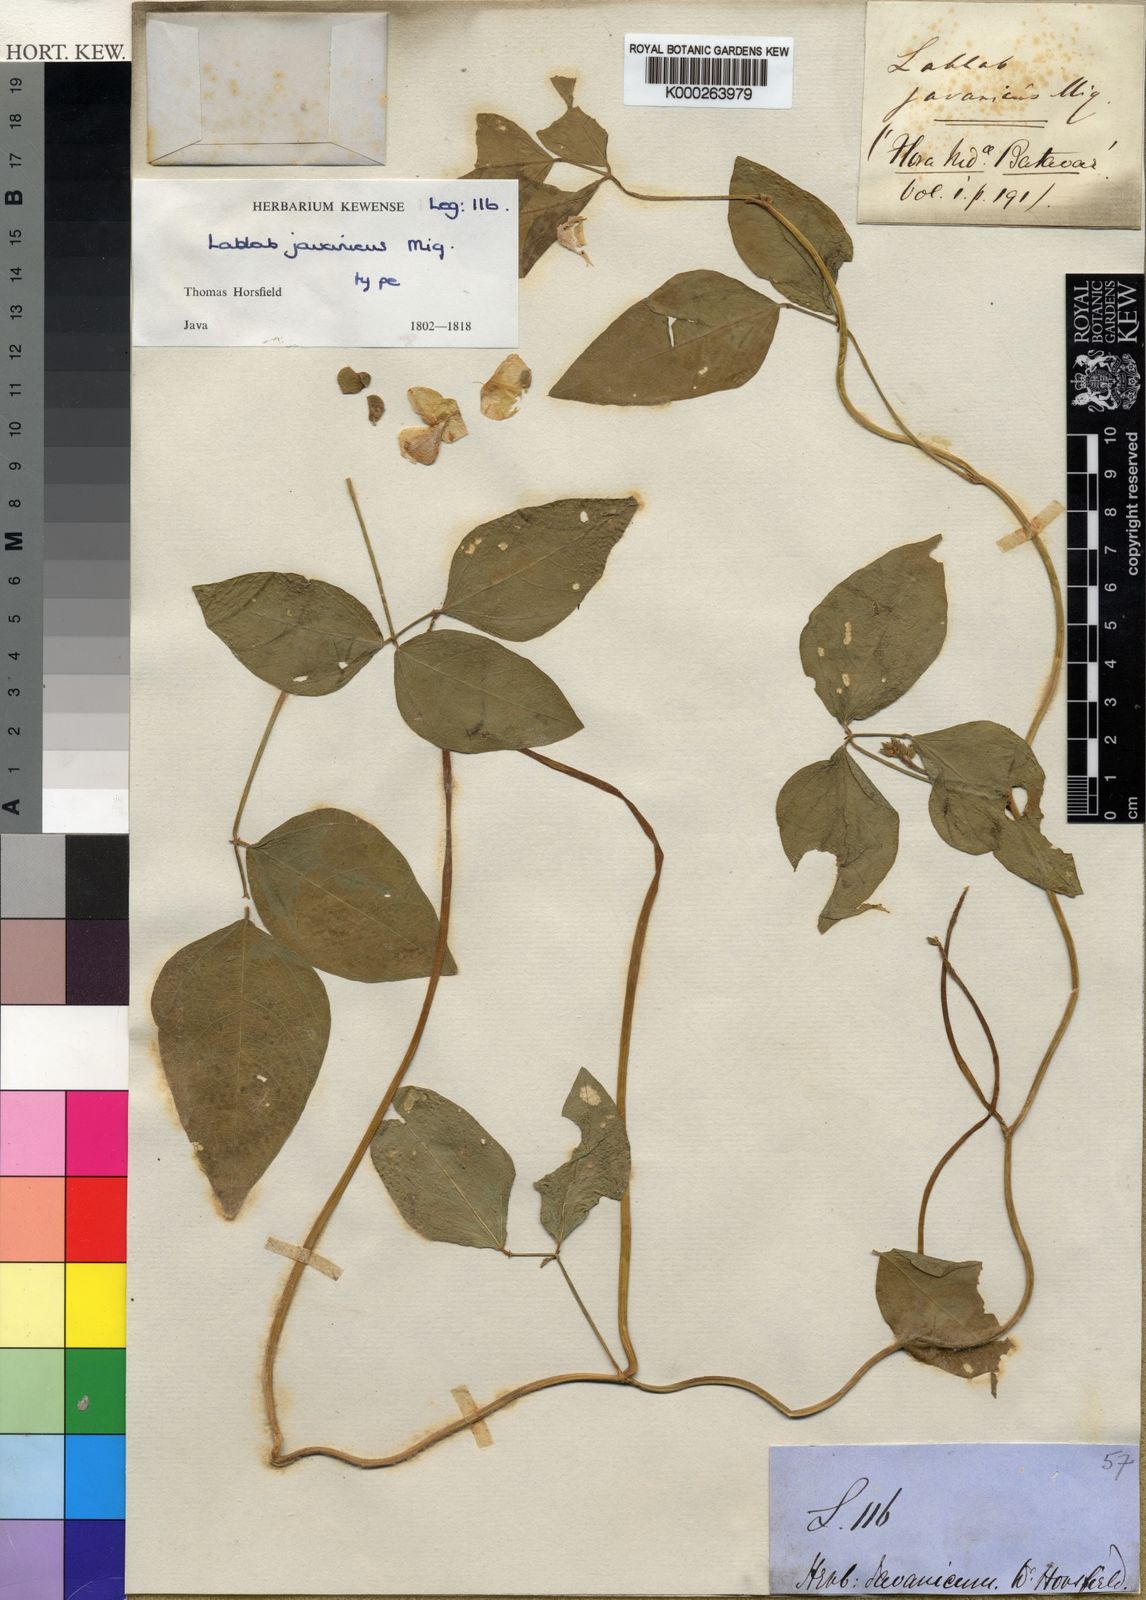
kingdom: Plantae
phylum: Tracheophyta
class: Magnoliopsida
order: Fabales
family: Fabaceae
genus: Vigna
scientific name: Vigna luteola
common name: Hairypod cowpea
